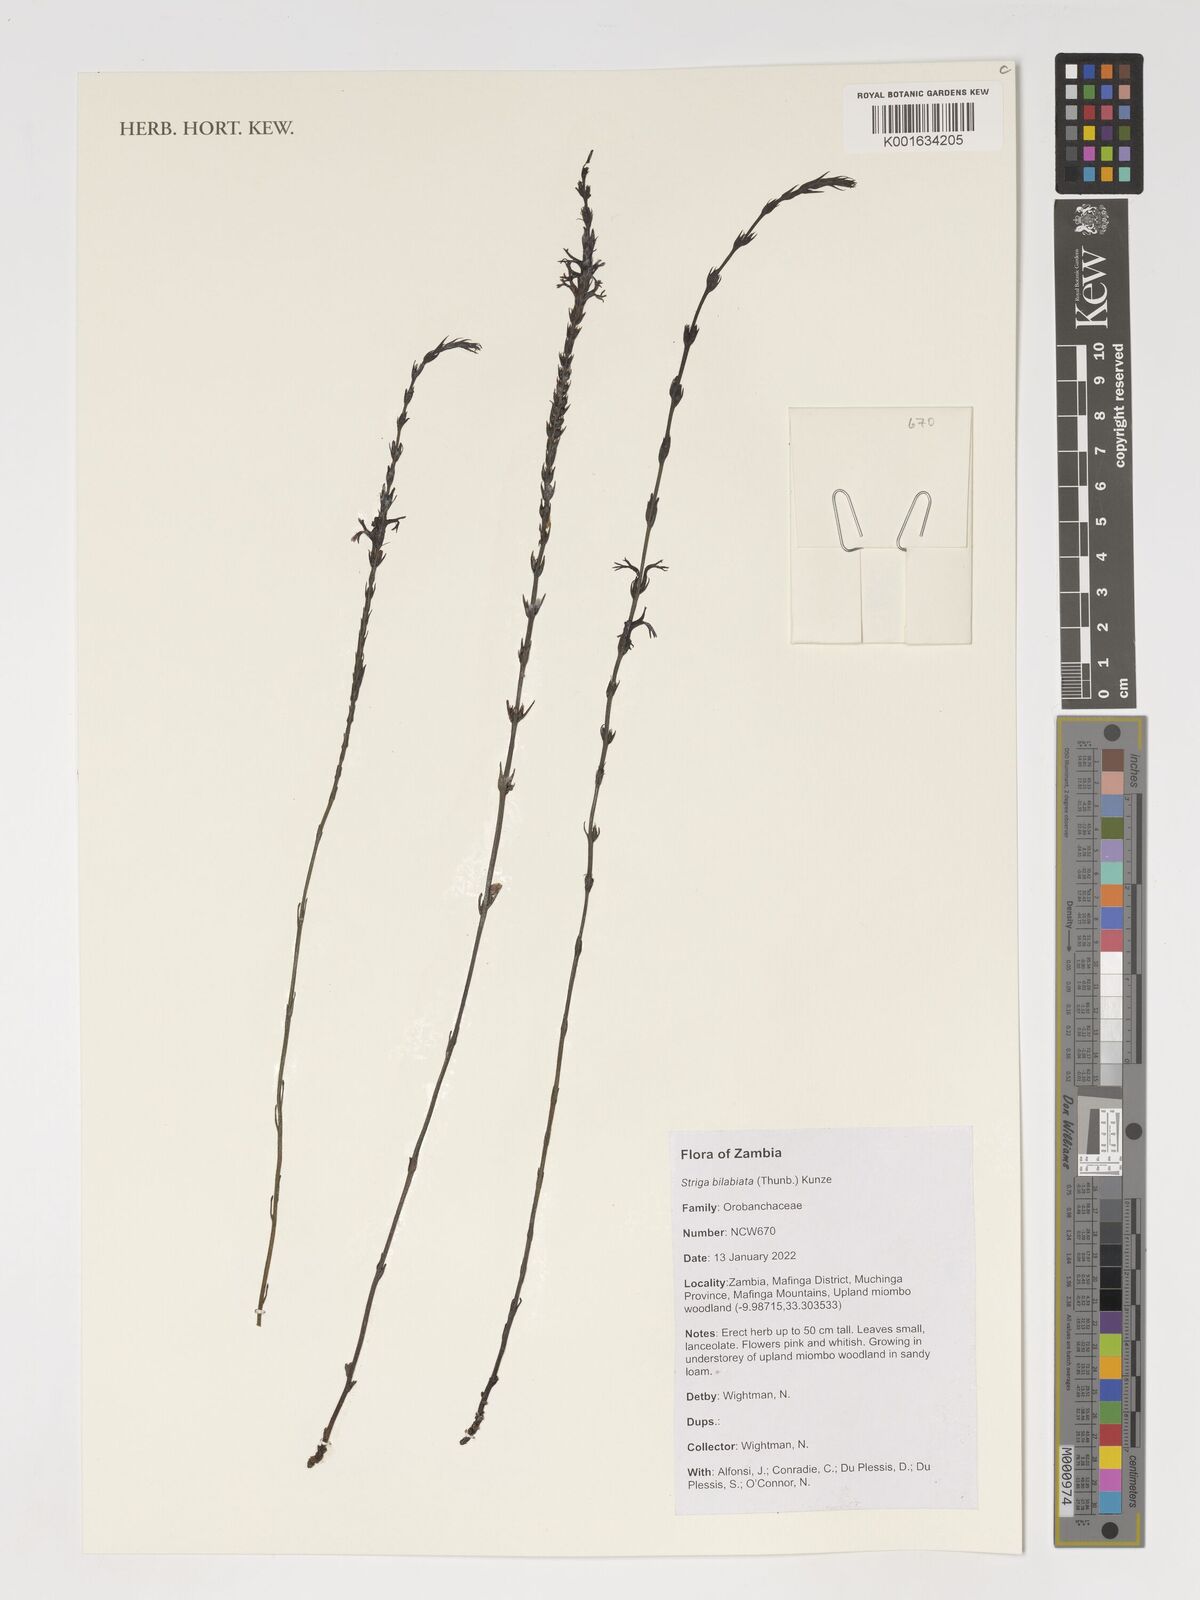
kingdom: Plantae
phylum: Tracheophyta
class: Magnoliopsida
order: Lamiales
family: Orobanchaceae
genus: Striga
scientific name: Striga bilabiata
